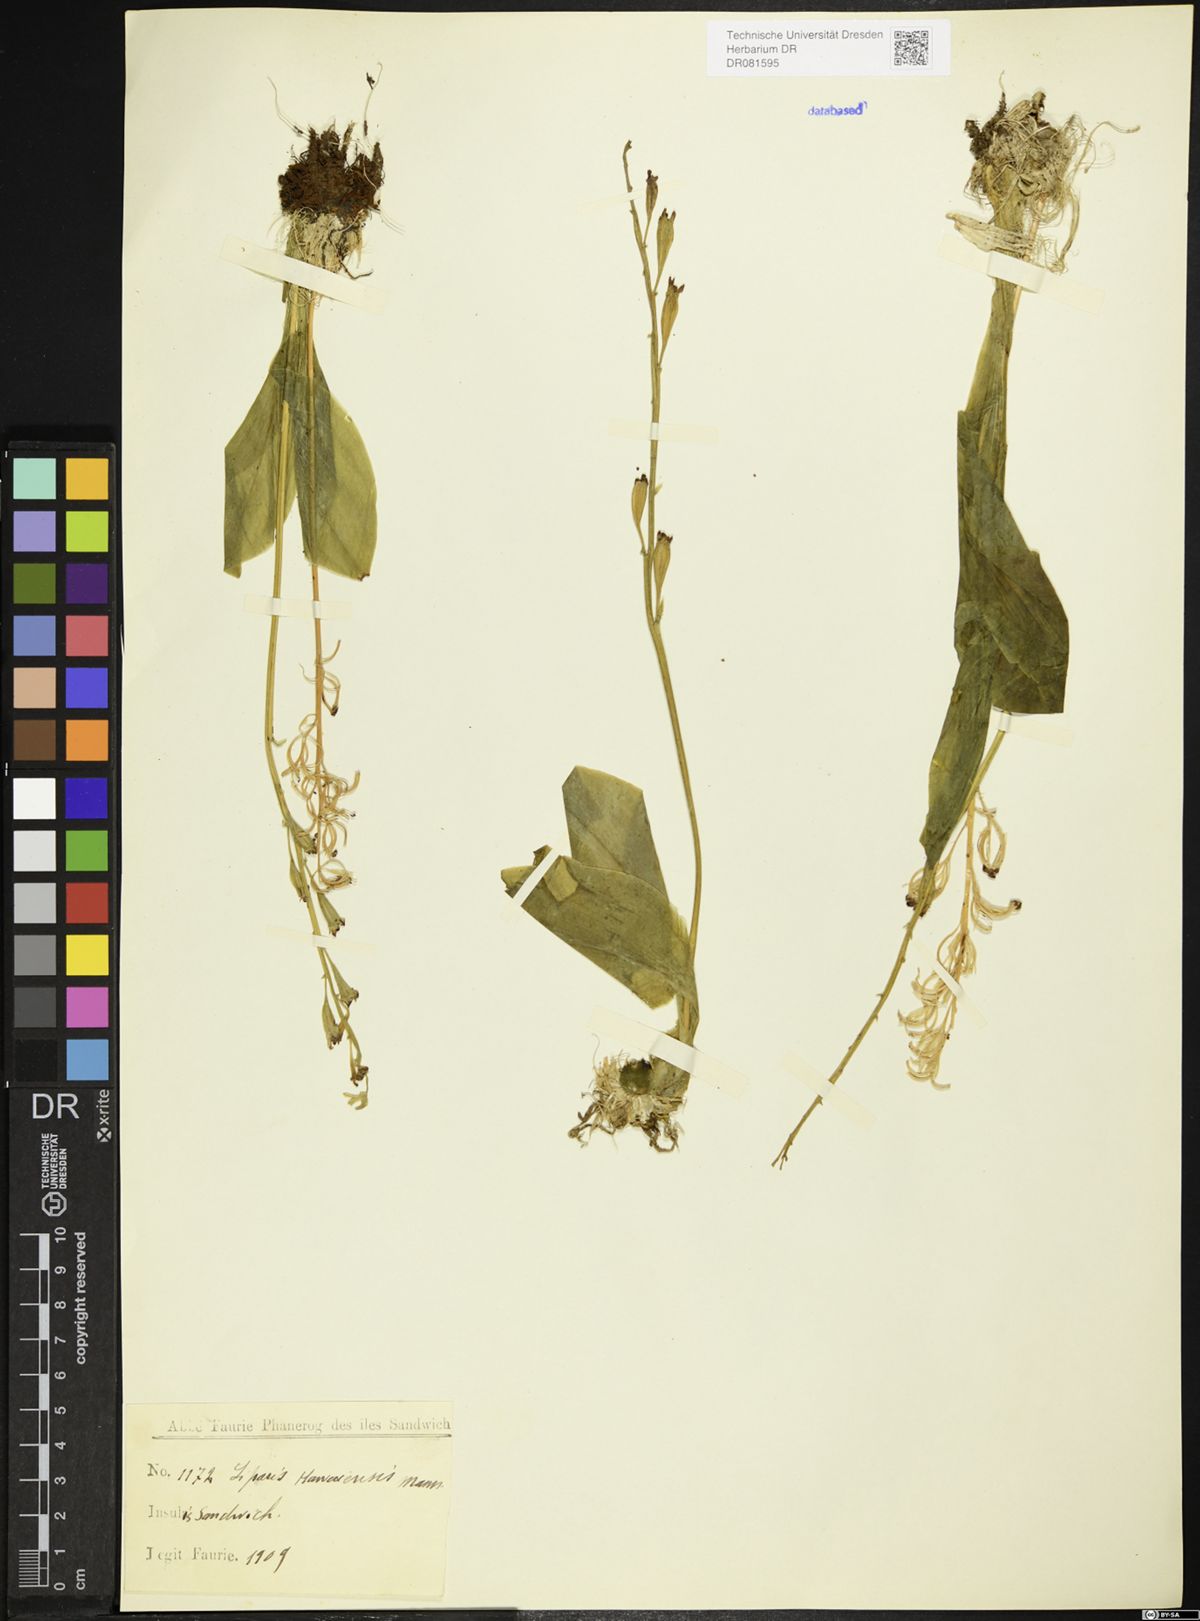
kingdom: Plantae
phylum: Tracheophyta
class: Liliopsida
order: Asparagales
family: Orchidaceae
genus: Liparis
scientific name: Liparis
